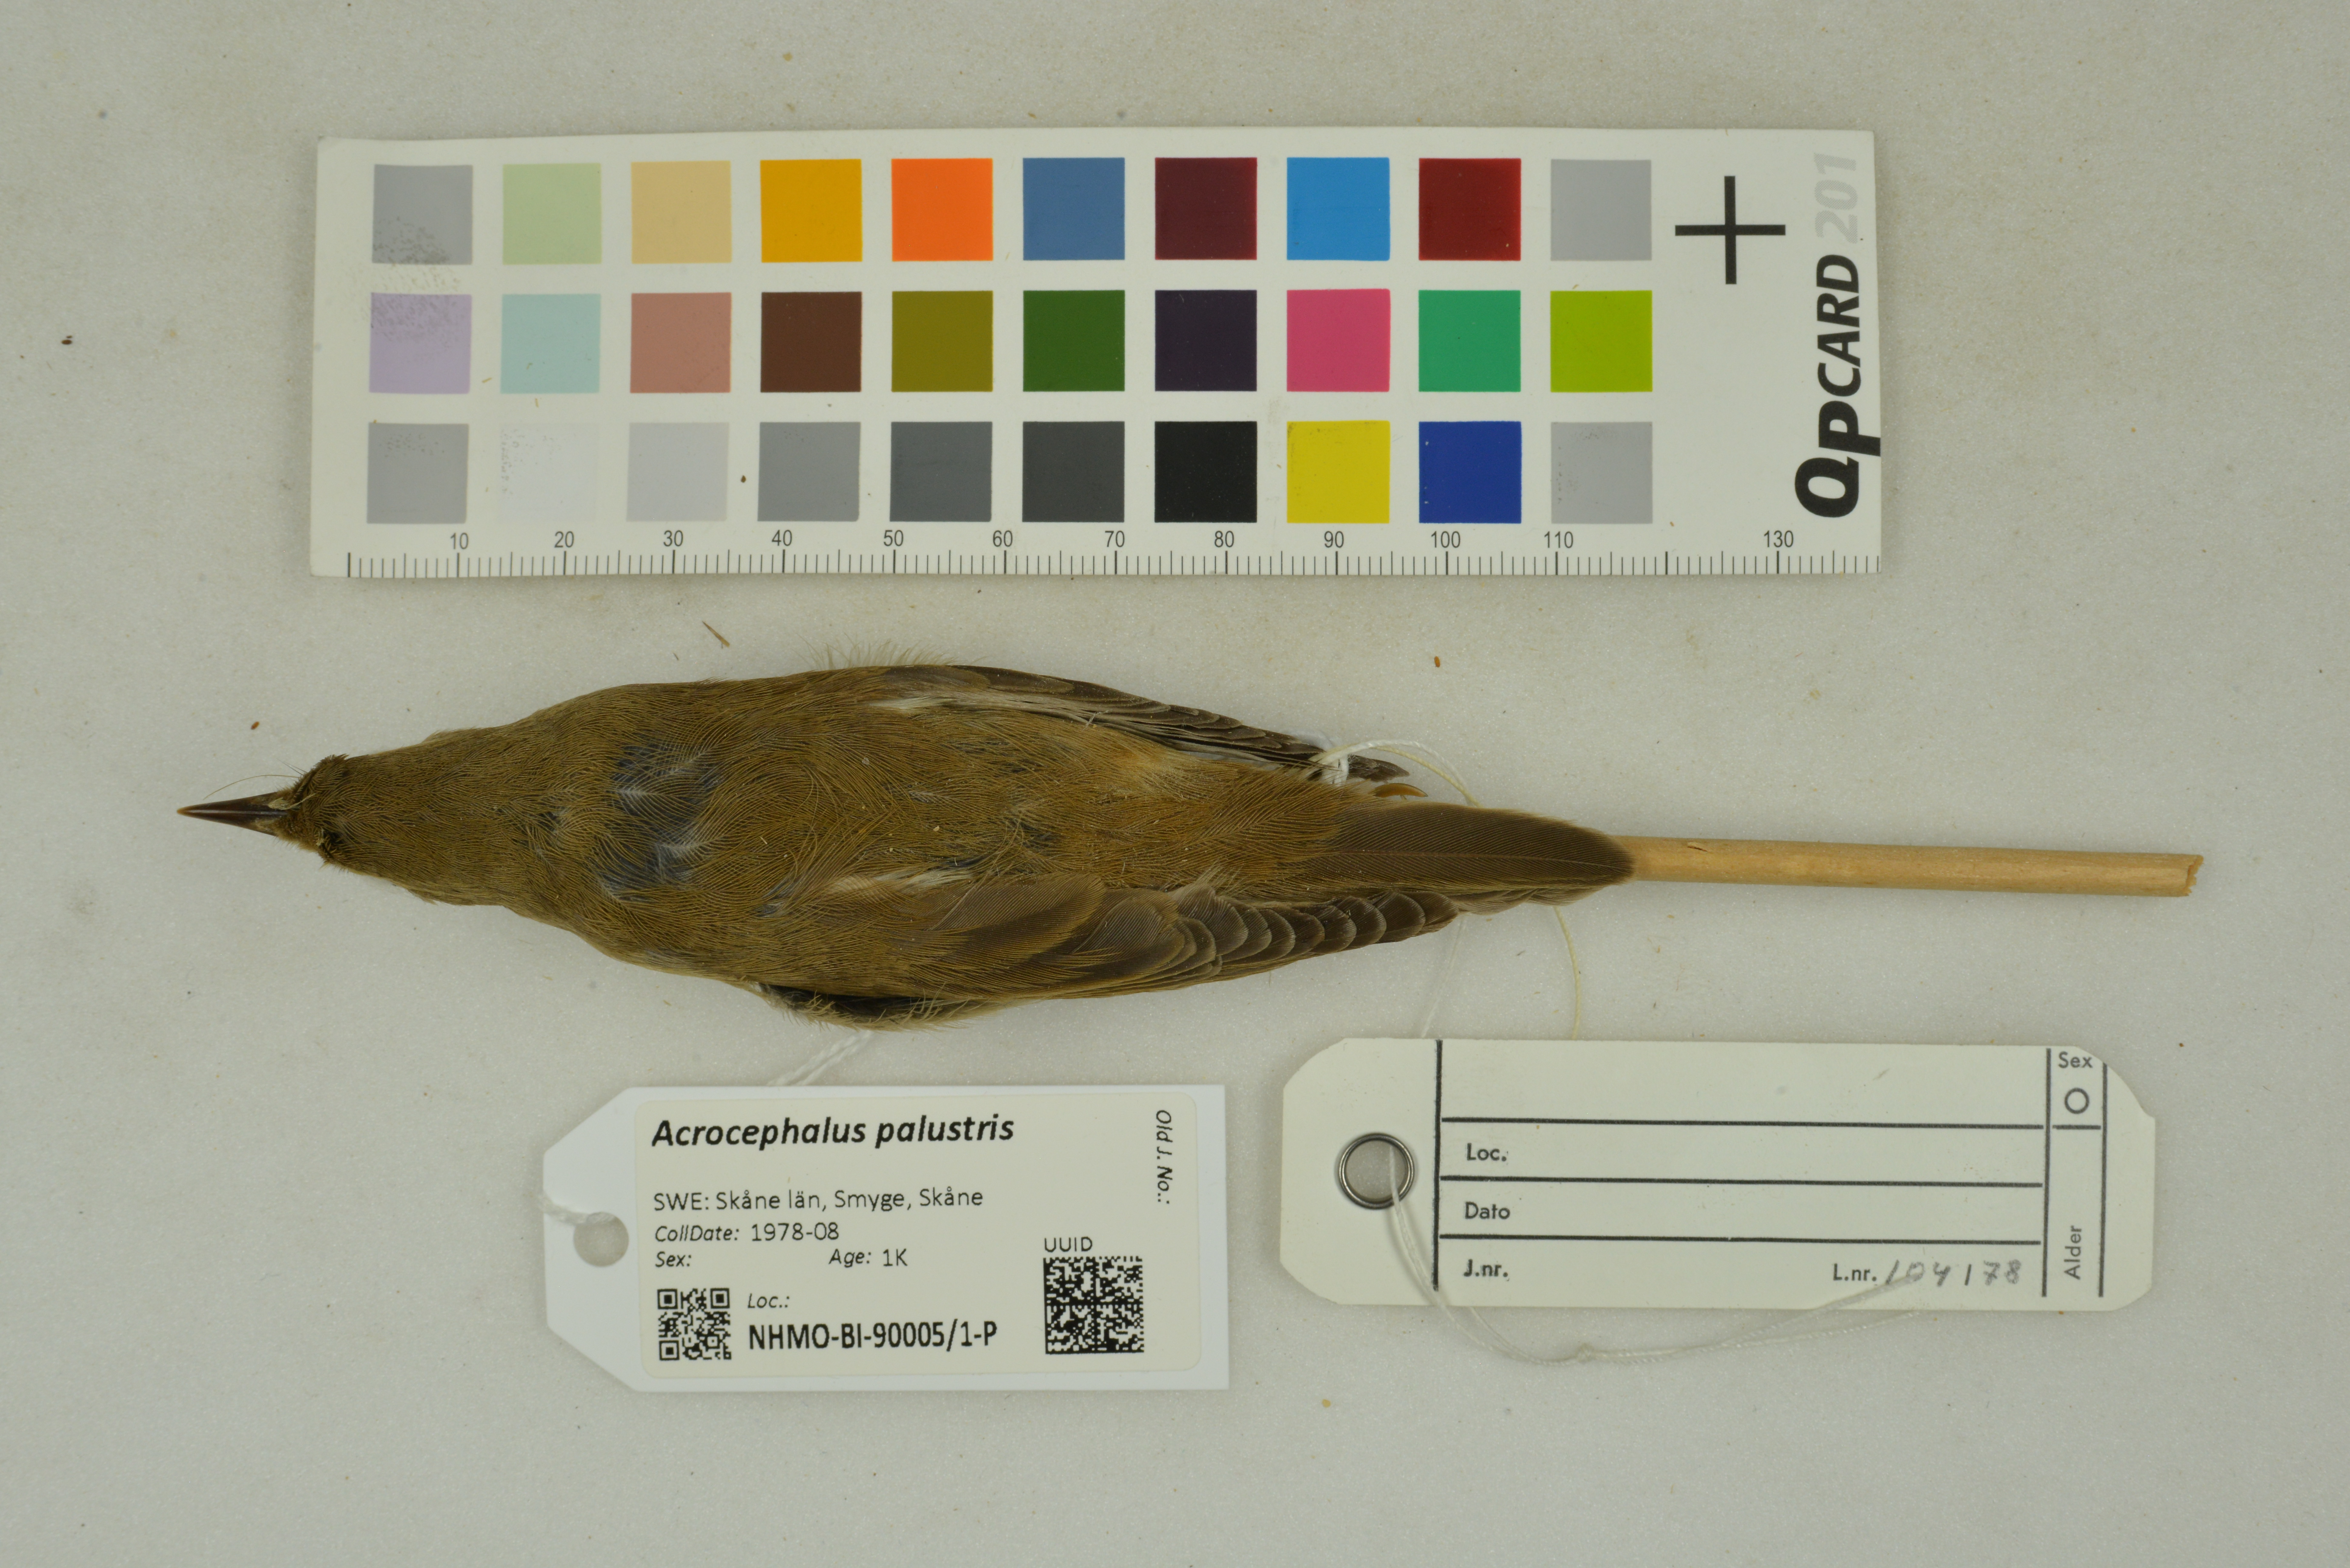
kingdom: Animalia
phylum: Chordata
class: Aves
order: Passeriformes
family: Acrocephalidae
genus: Acrocephalus
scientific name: Acrocephalus palustris
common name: Marsh warbler
